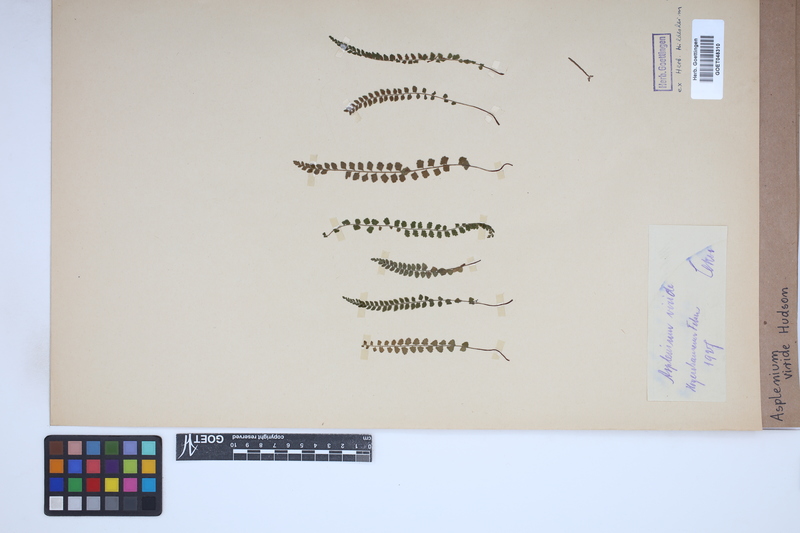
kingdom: Plantae
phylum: Tracheophyta
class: Polypodiopsida
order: Polypodiales
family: Aspleniaceae
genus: Asplenium
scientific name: Asplenium viride
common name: Green spleenwort
